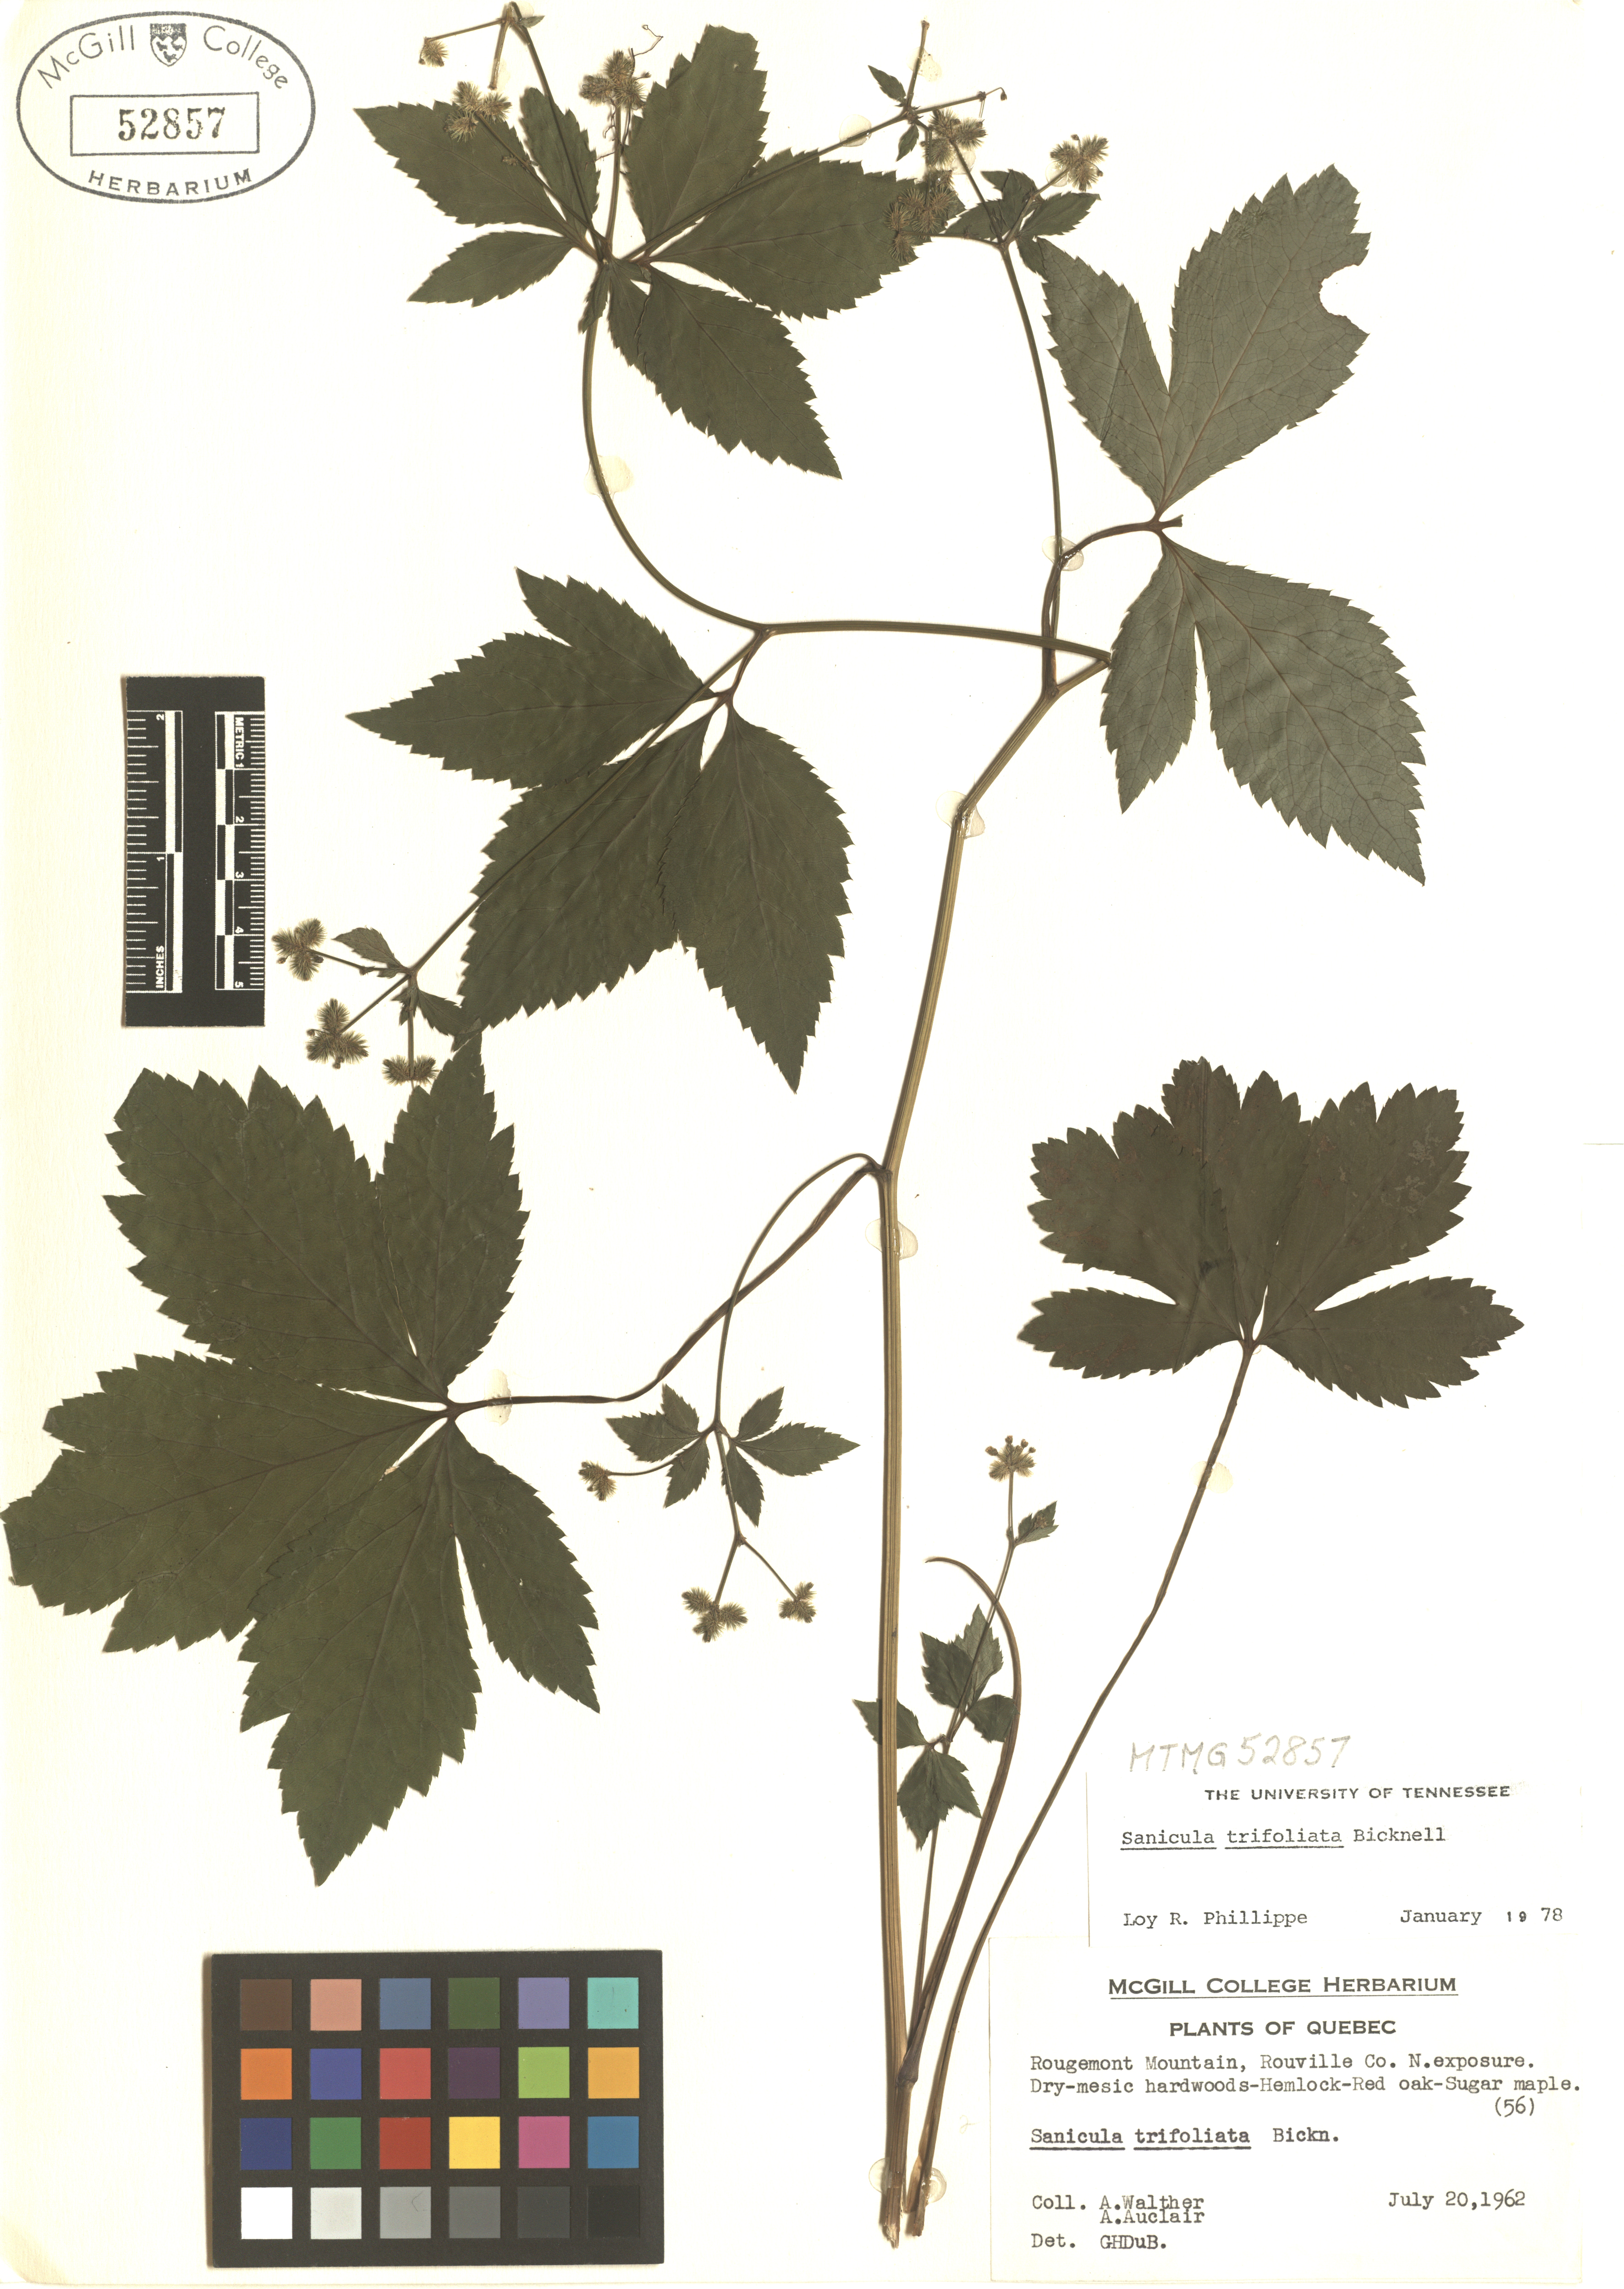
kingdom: Plantae
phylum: Tracheophyta
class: Magnoliopsida
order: Apiales
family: Apiaceae
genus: Sanicula
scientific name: Sanicula trifoliata
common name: Beaked sanicle
